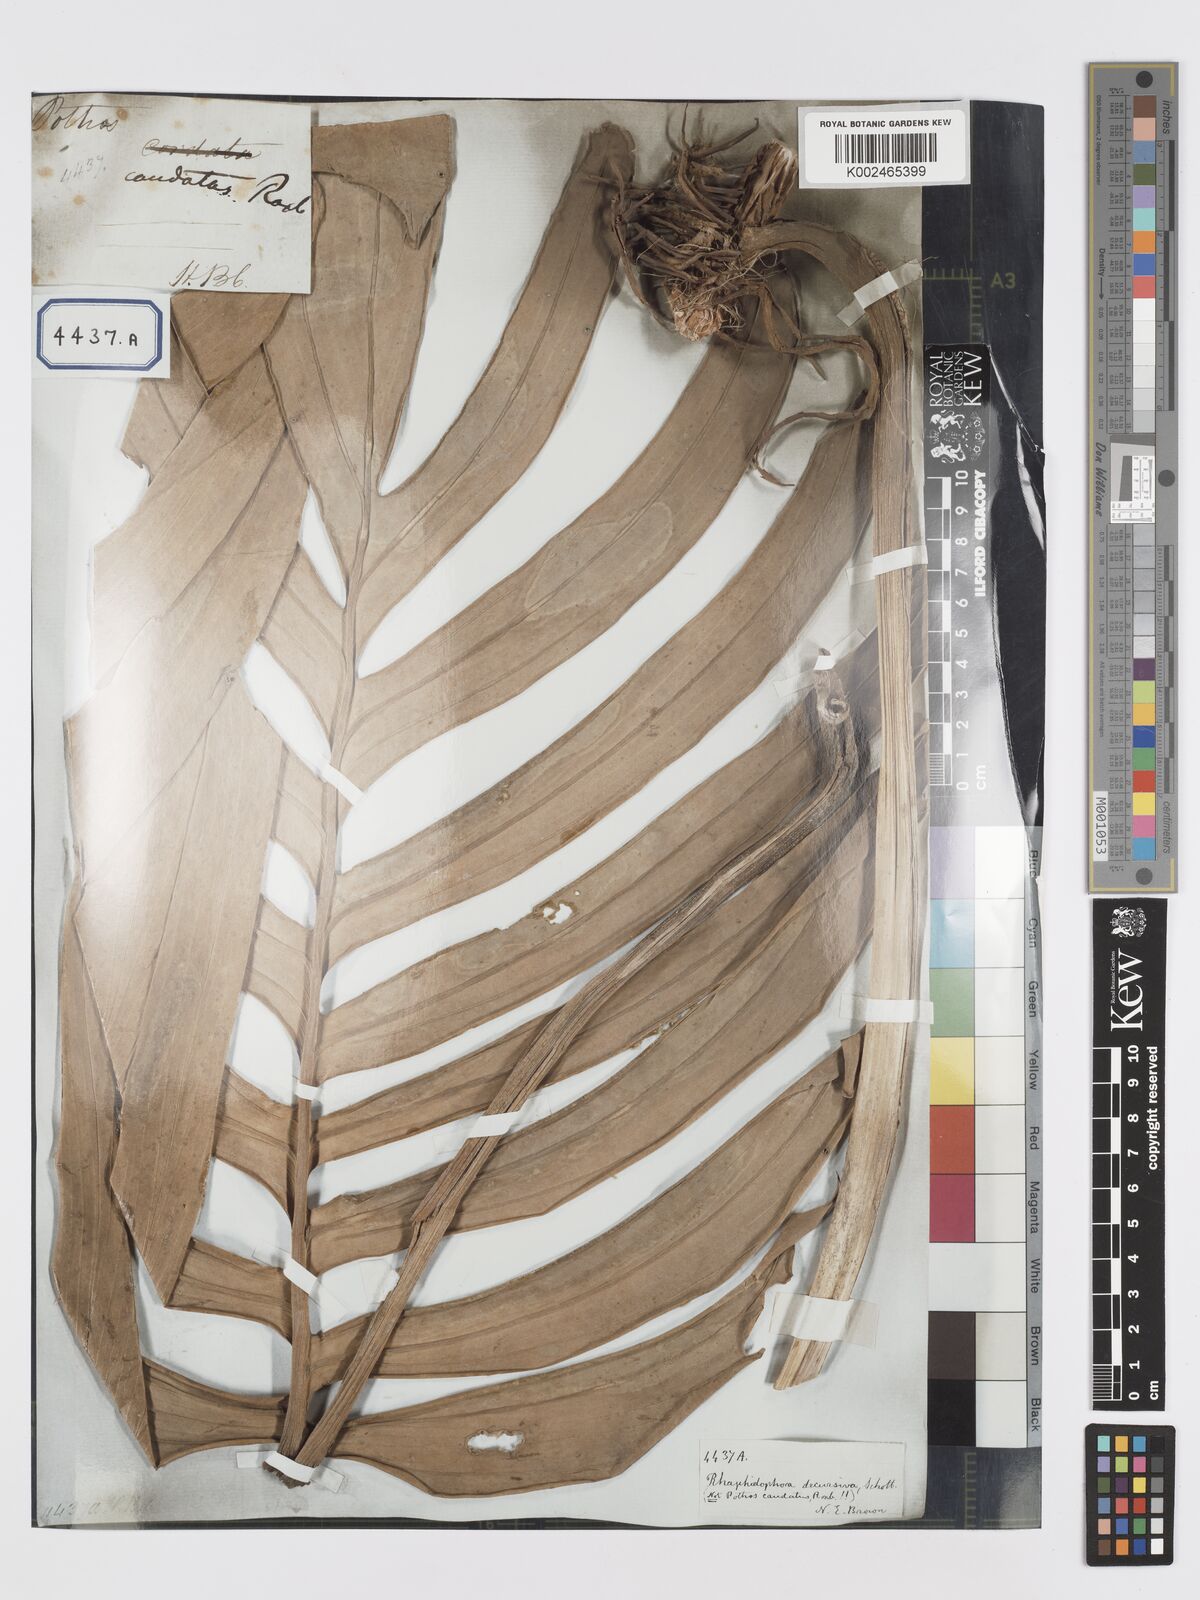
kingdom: Plantae
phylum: Tracheophyta
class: Liliopsida
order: Alismatales
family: Araceae
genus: Rhaphidophora
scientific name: Rhaphidophora decursiva
